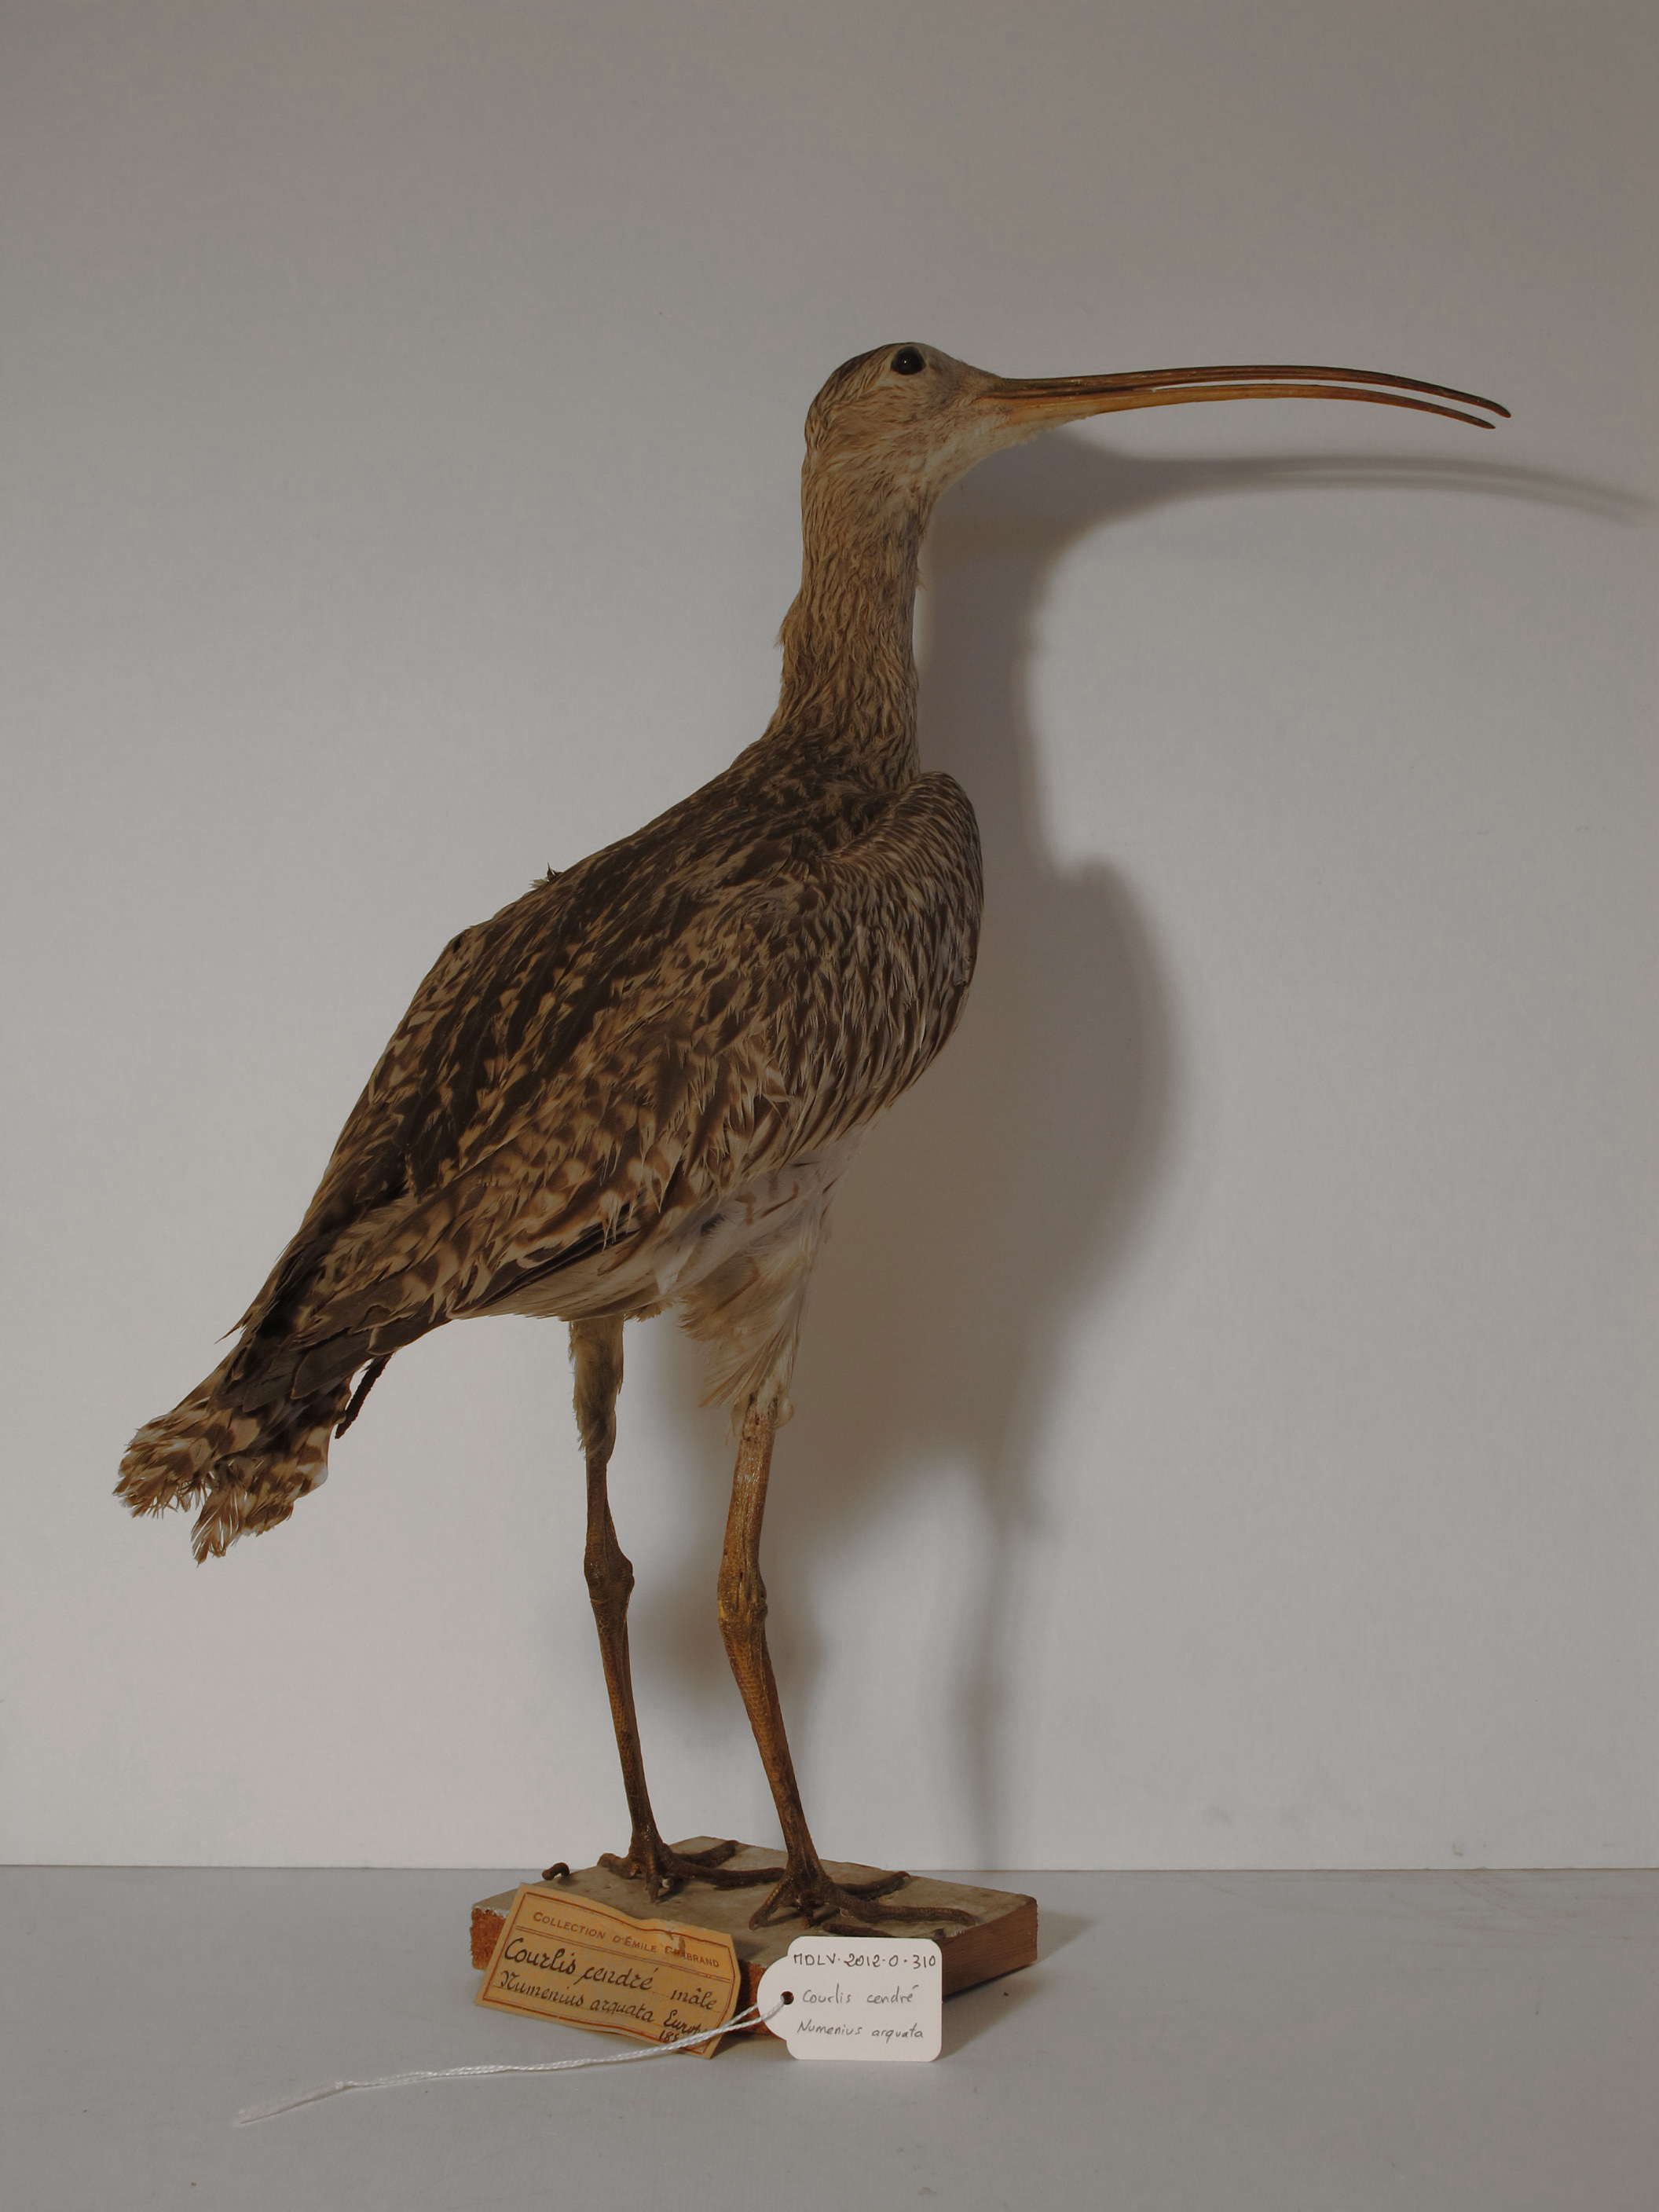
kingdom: Animalia
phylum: Chordata
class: Aves
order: Charadriiformes
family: Scolopacidae
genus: Numenius
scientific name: Numenius arquata
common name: Eurasian Curlew
